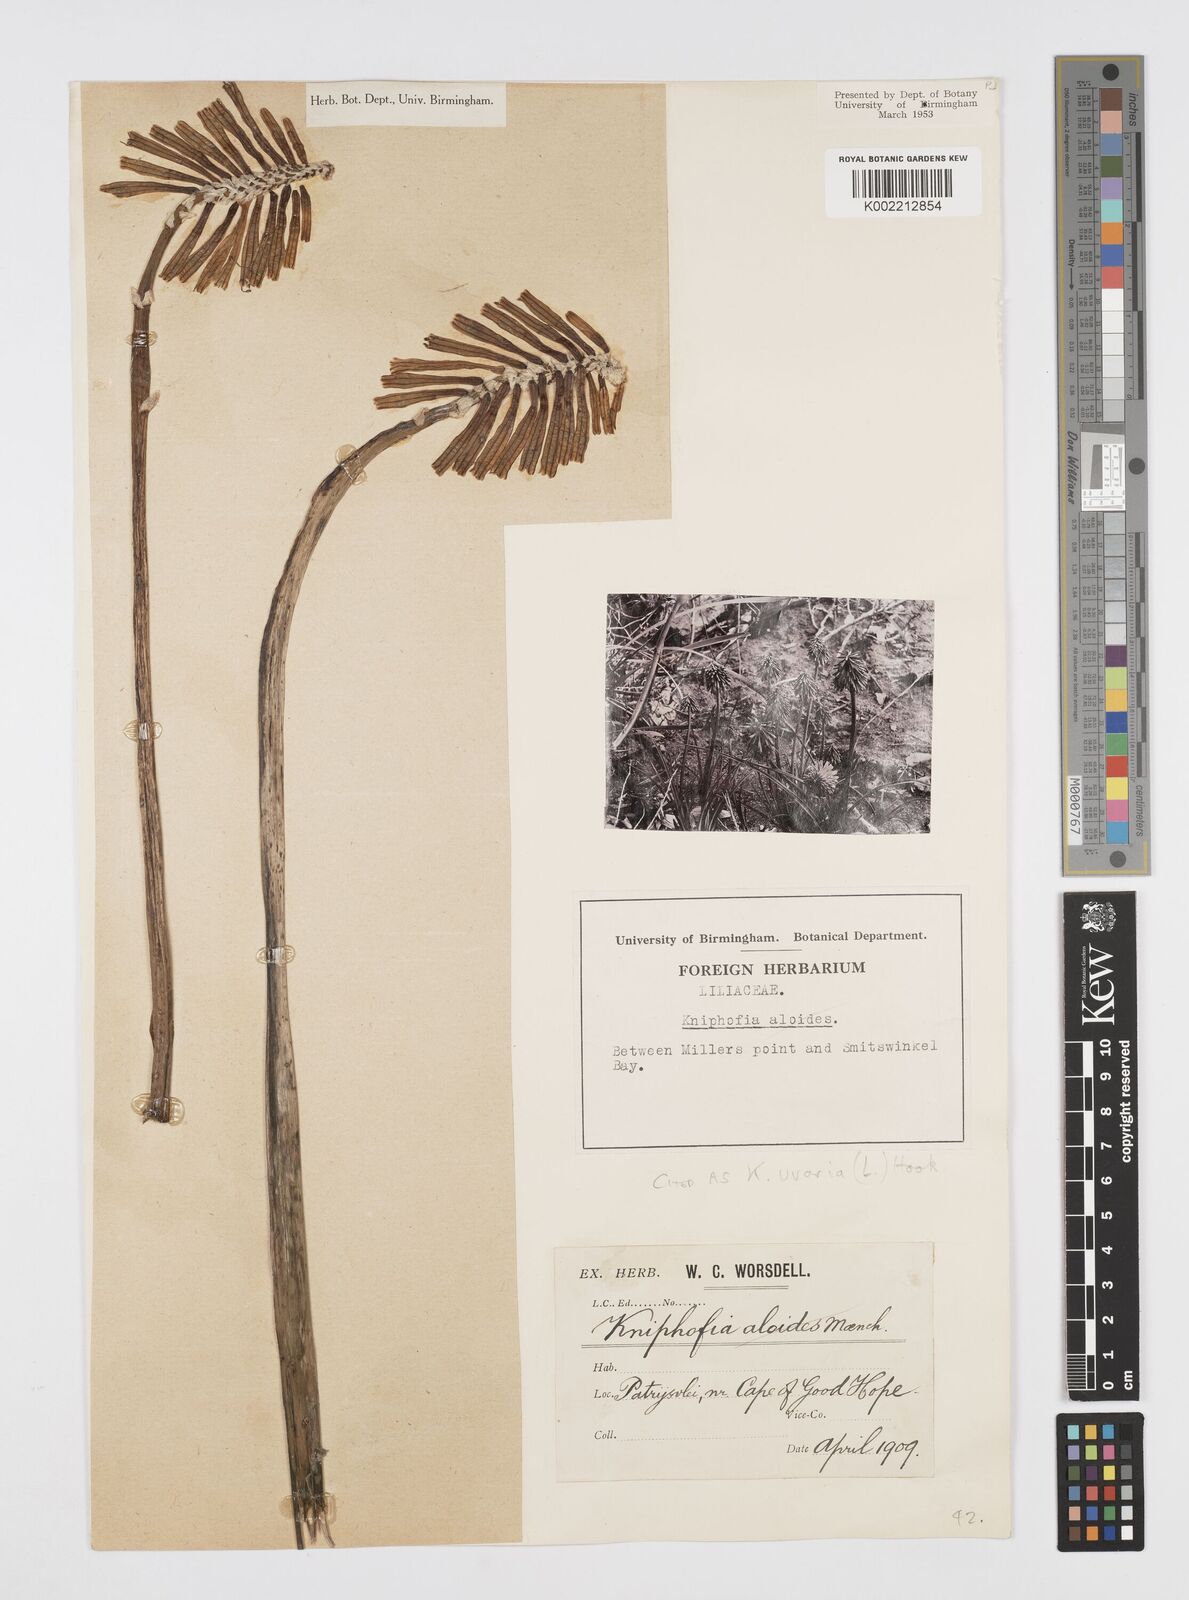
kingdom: Plantae
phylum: Tracheophyta
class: Liliopsida
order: Asparagales
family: Asphodelaceae
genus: Kniphofia
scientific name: Kniphofia uvaria
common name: Red-hot-poker
